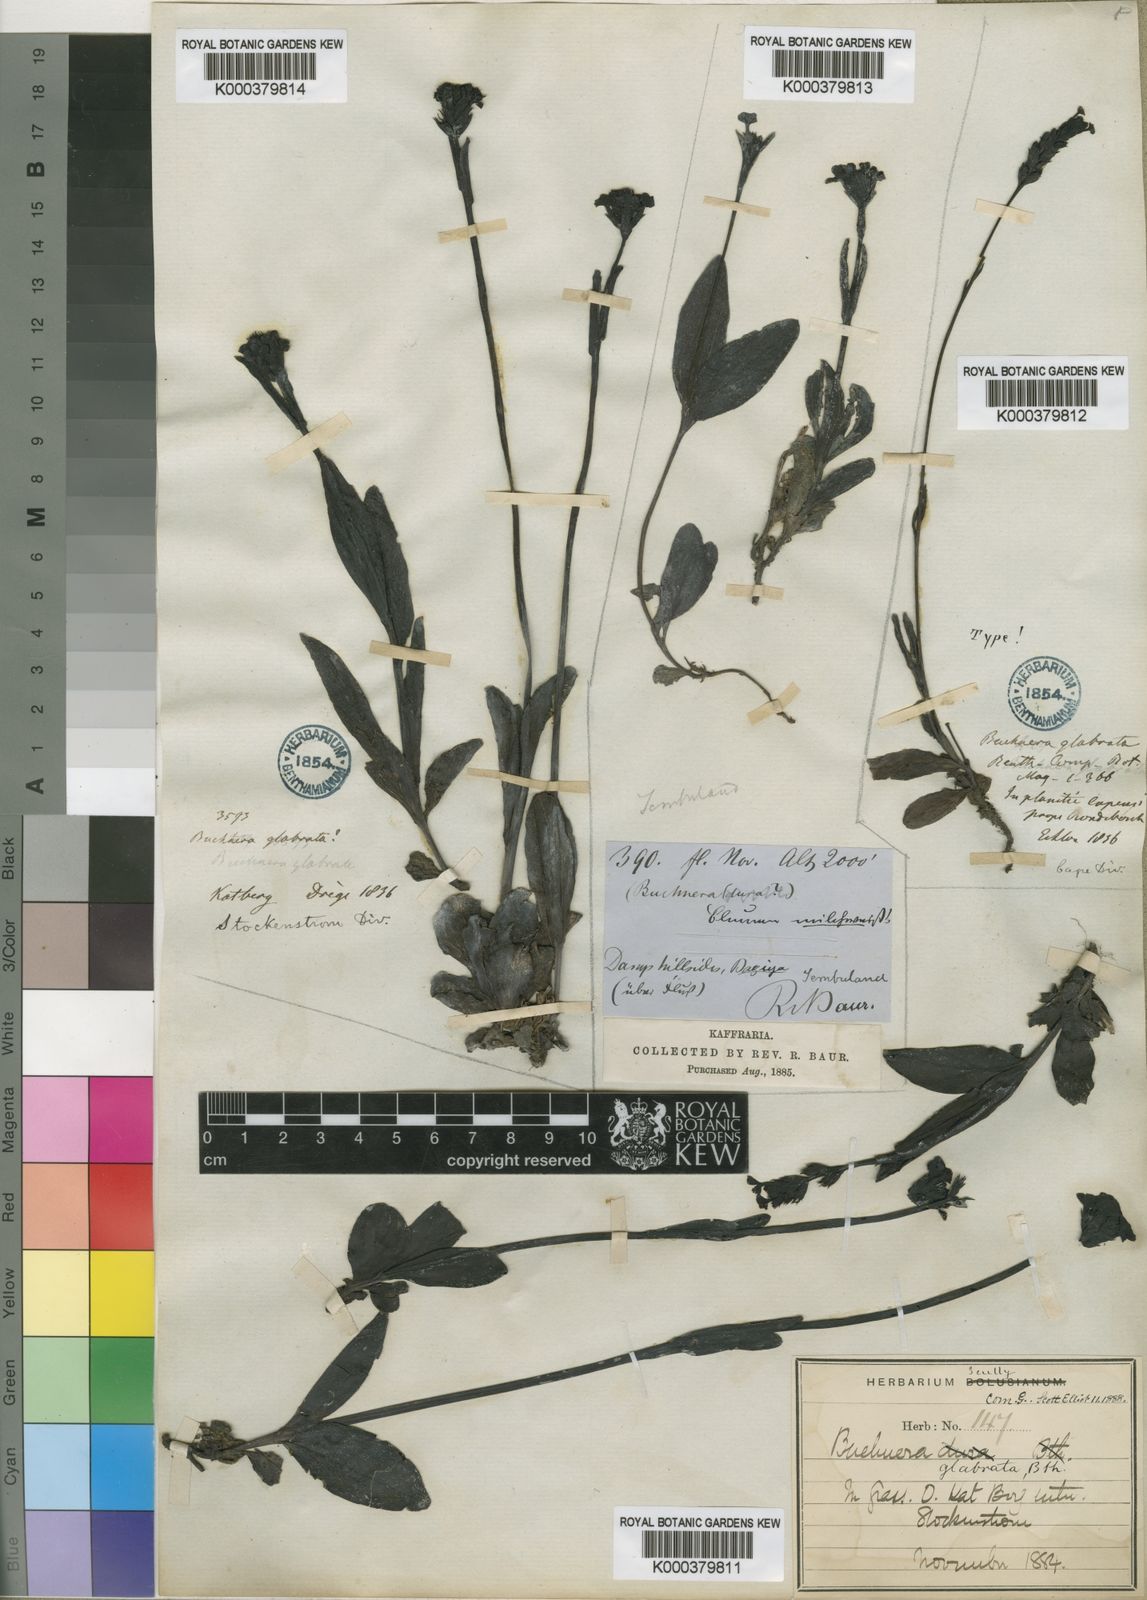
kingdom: Plantae
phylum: Tracheophyta
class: Magnoliopsida
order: Lamiales
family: Orobanchaceae
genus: Buchnera
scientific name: Buchnera simplex
